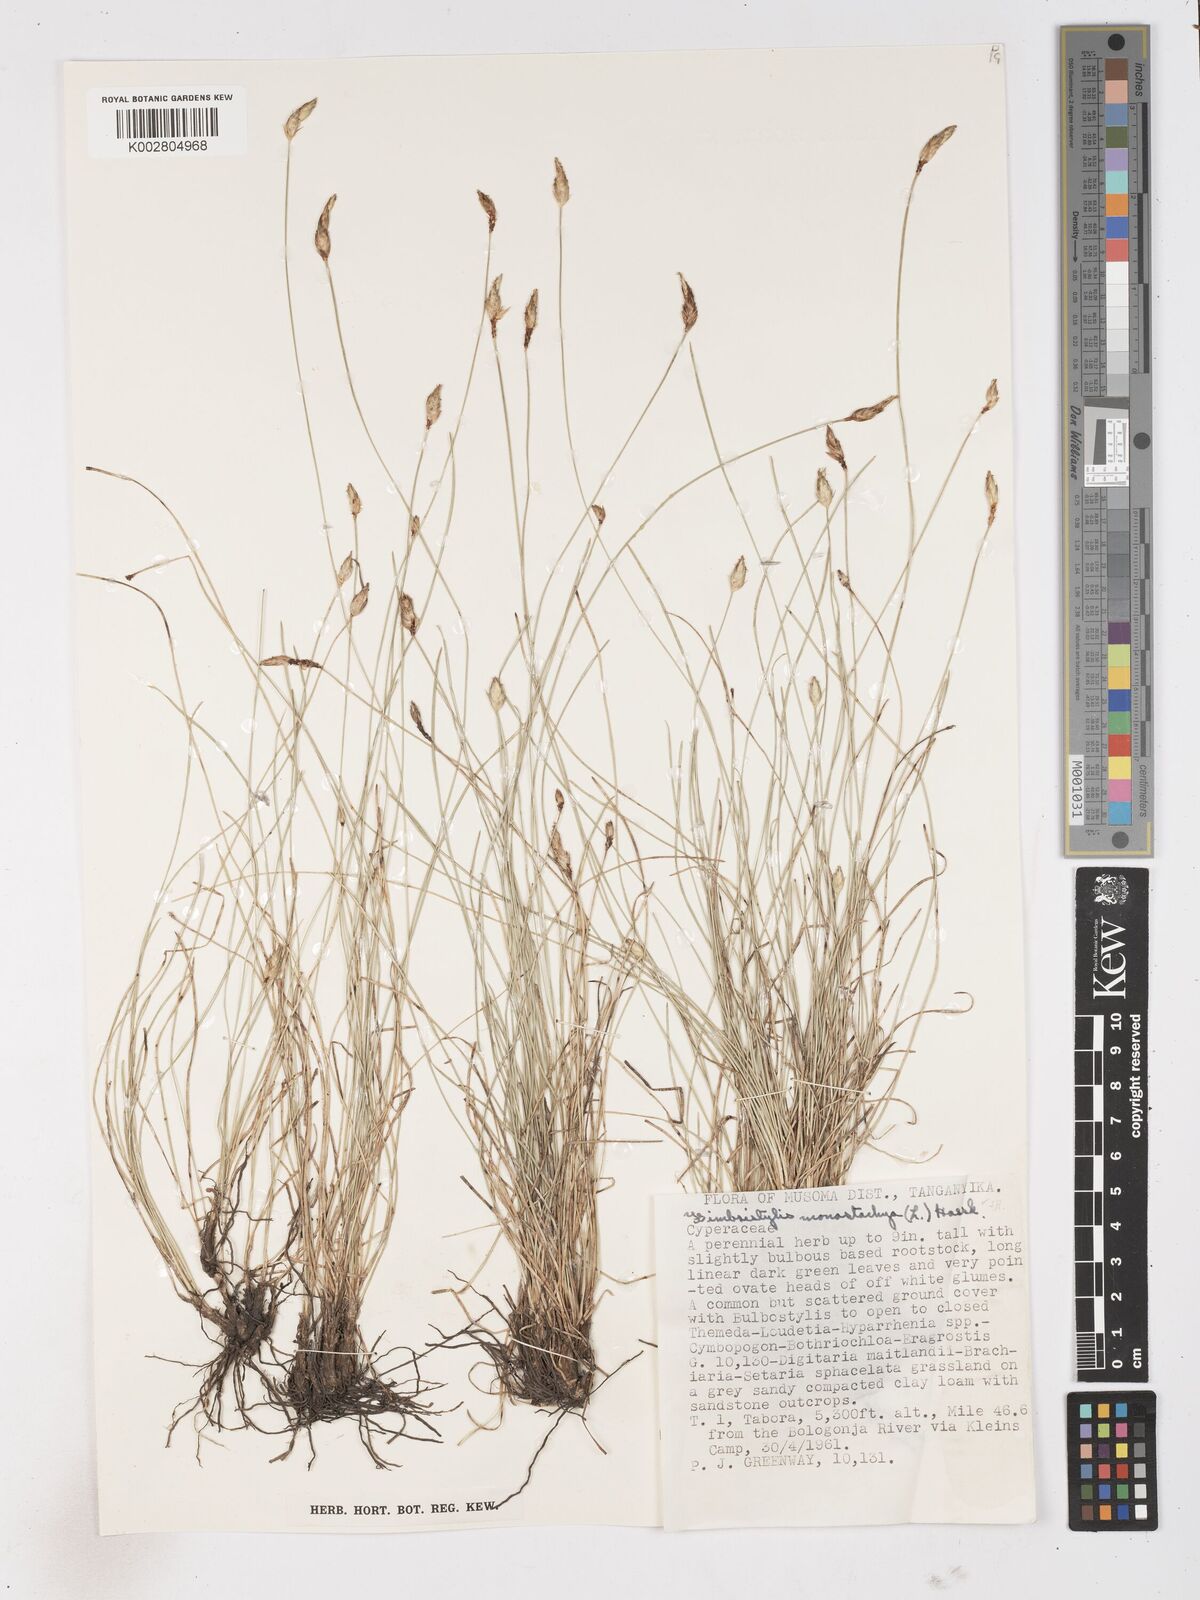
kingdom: Plantae
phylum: Tracheophyta
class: Liliopsida
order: Poales
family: Cyperaceae
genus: Abildgaardia
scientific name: Abildgaardia ovata
